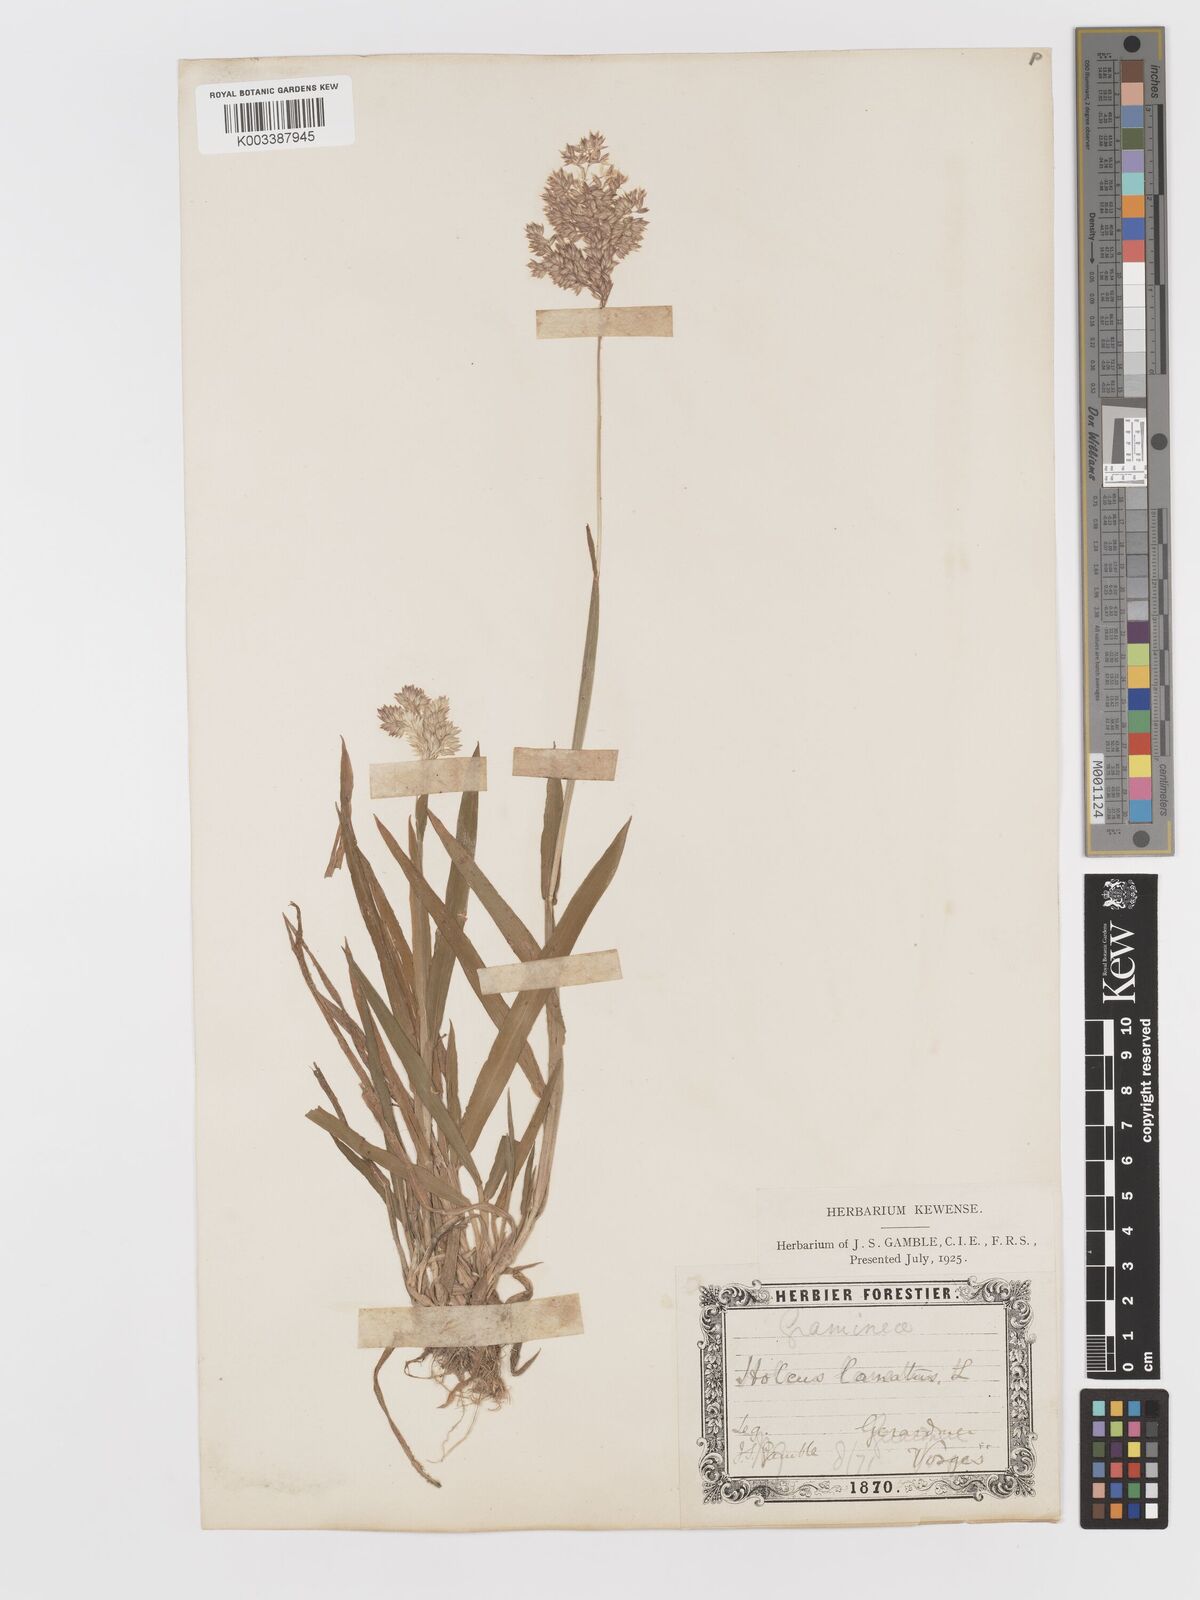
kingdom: Plantae
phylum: Tracheophyta
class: Liliopsida
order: Poales
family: Poaceae
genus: Holcus
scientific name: Holcus lanatus
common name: Yorkshire-fog
